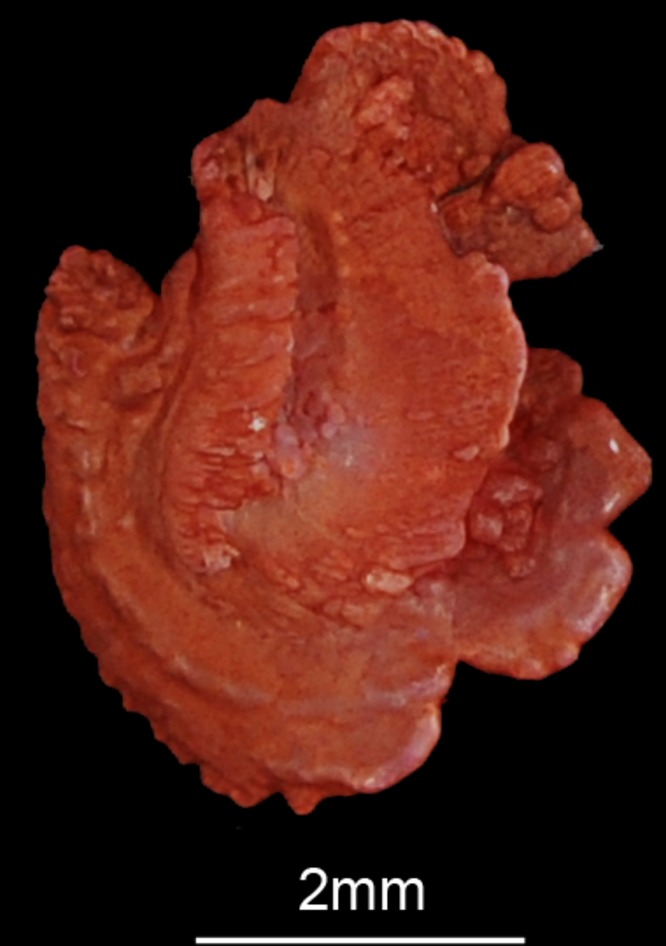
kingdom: Animalia
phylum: Chordata
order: Cypriniformes
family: Cyprinidae
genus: Barbus
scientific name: Barbus barbus
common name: Barbel
